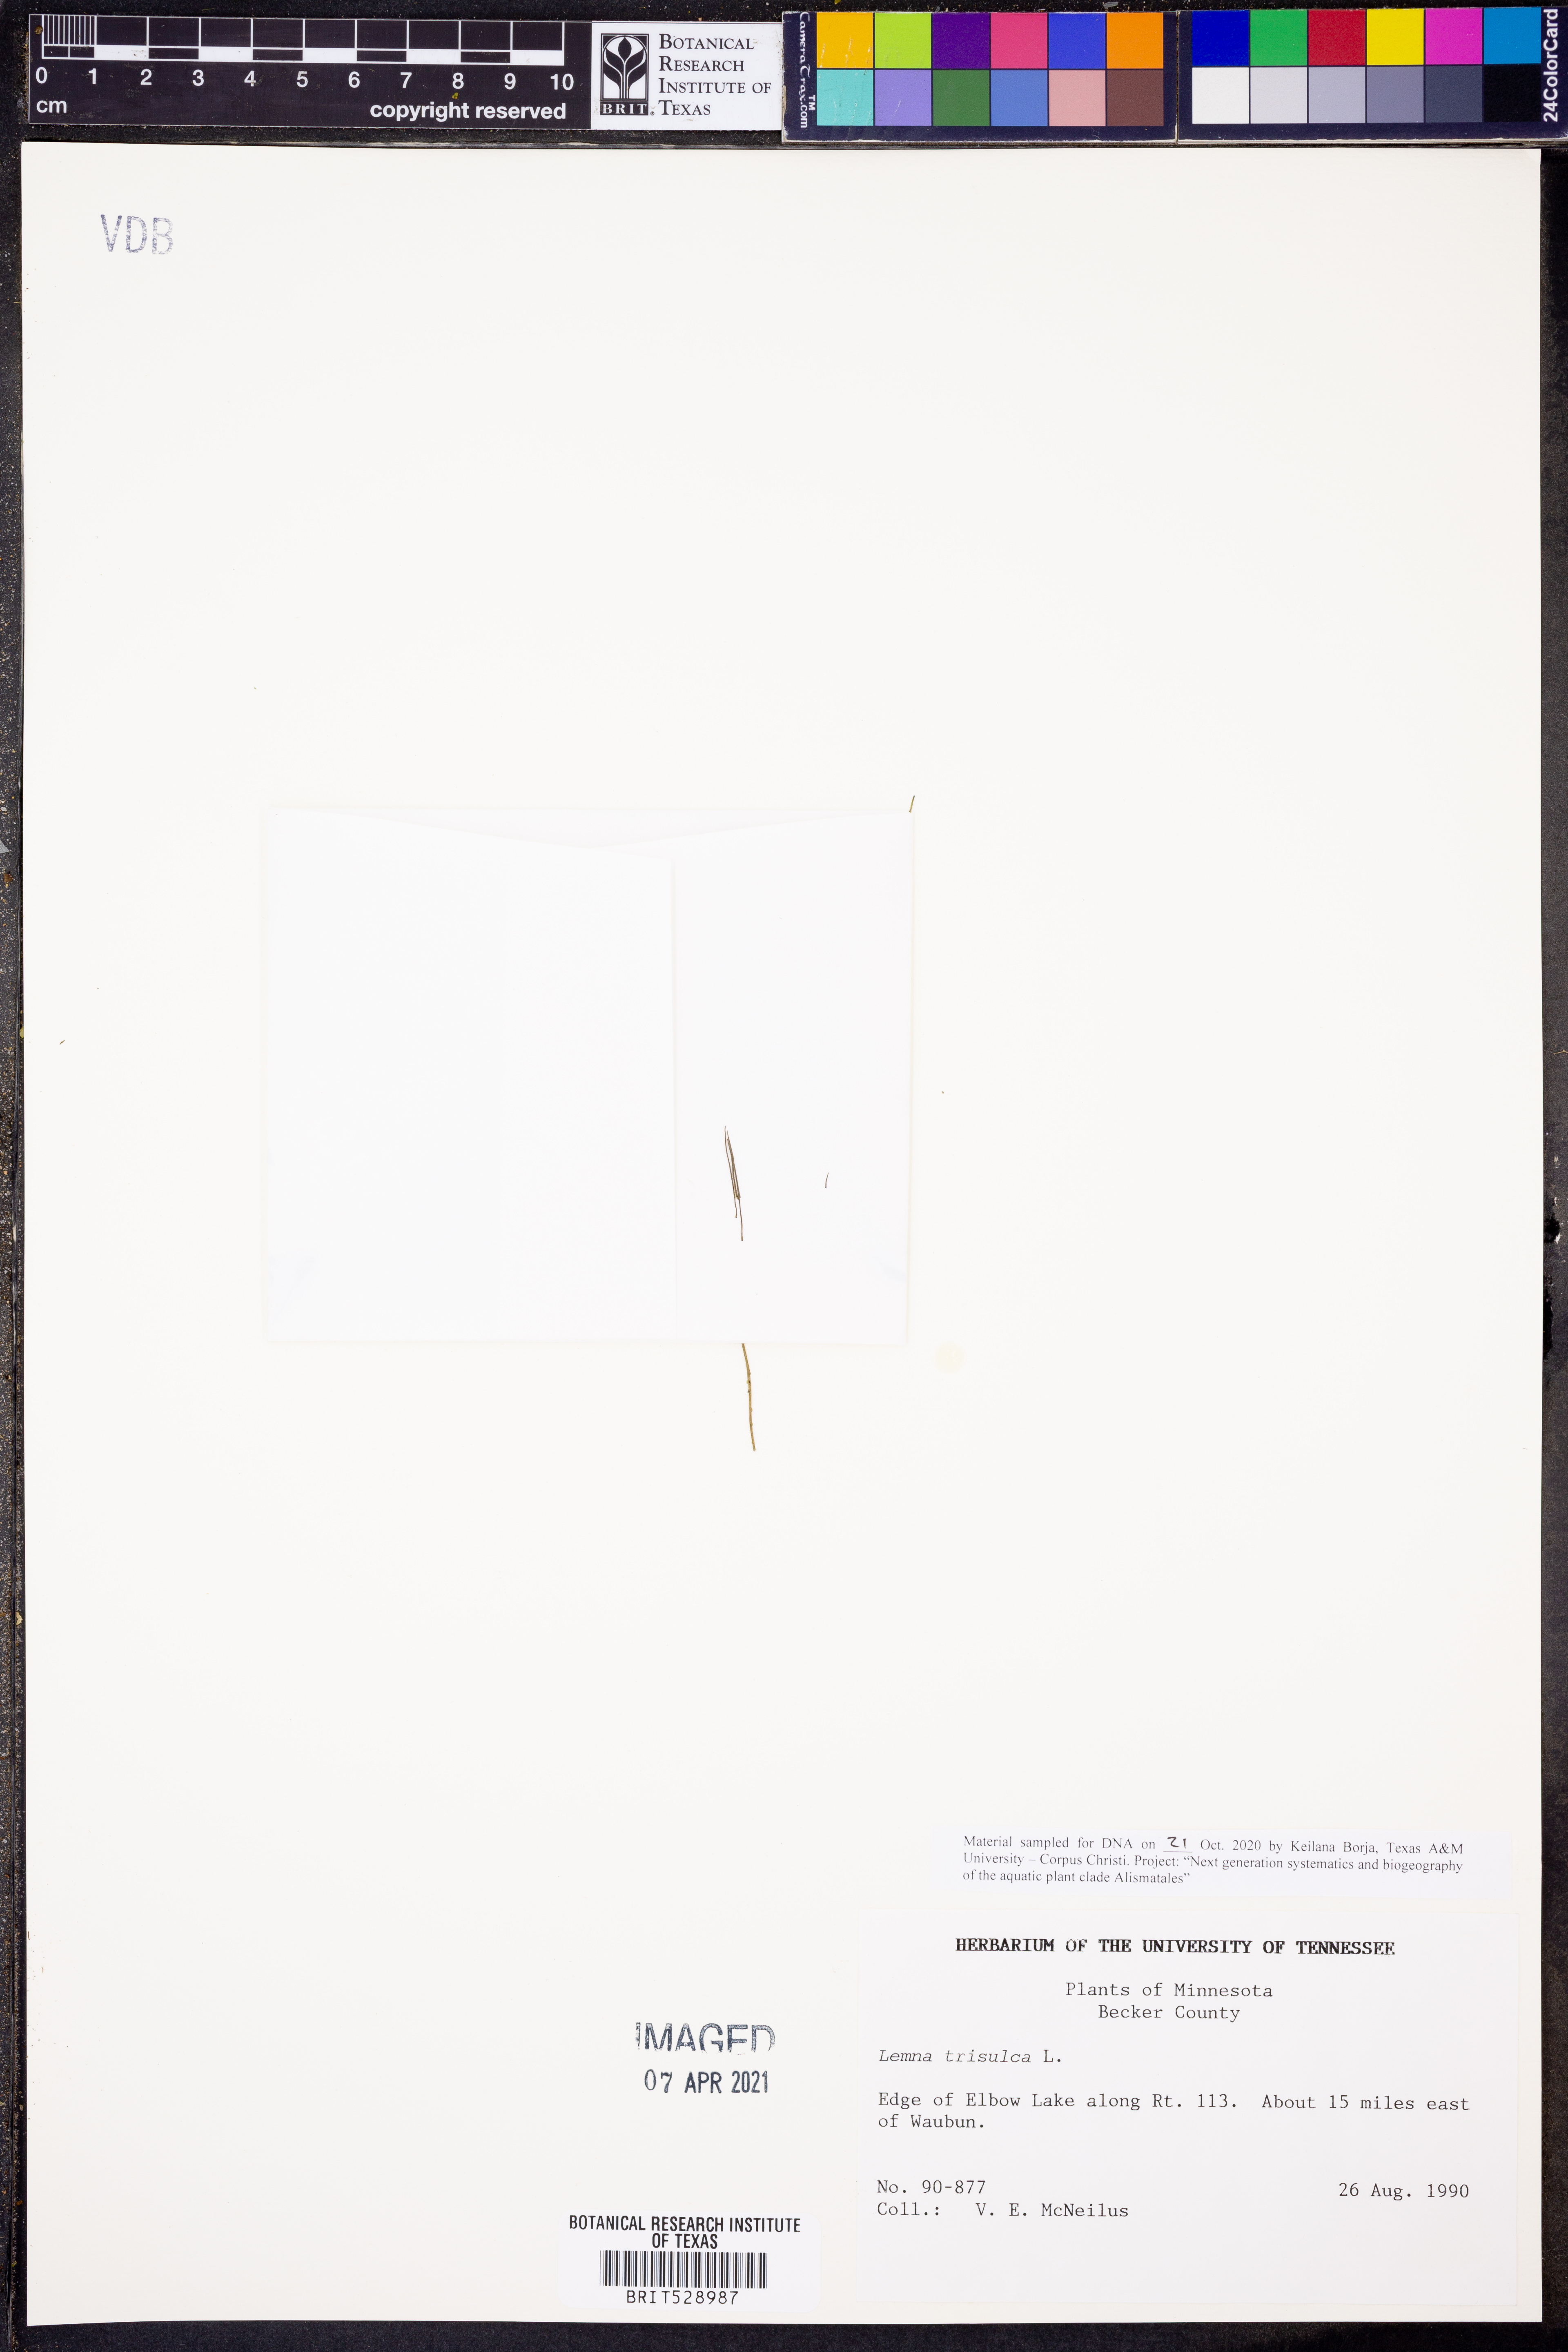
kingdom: Plantae
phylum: Tracheophyta
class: Liliopsida
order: Alismatales
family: Araceae
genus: Lemna
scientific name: Lemna trisulca
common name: Ivy-leaved duckweed
